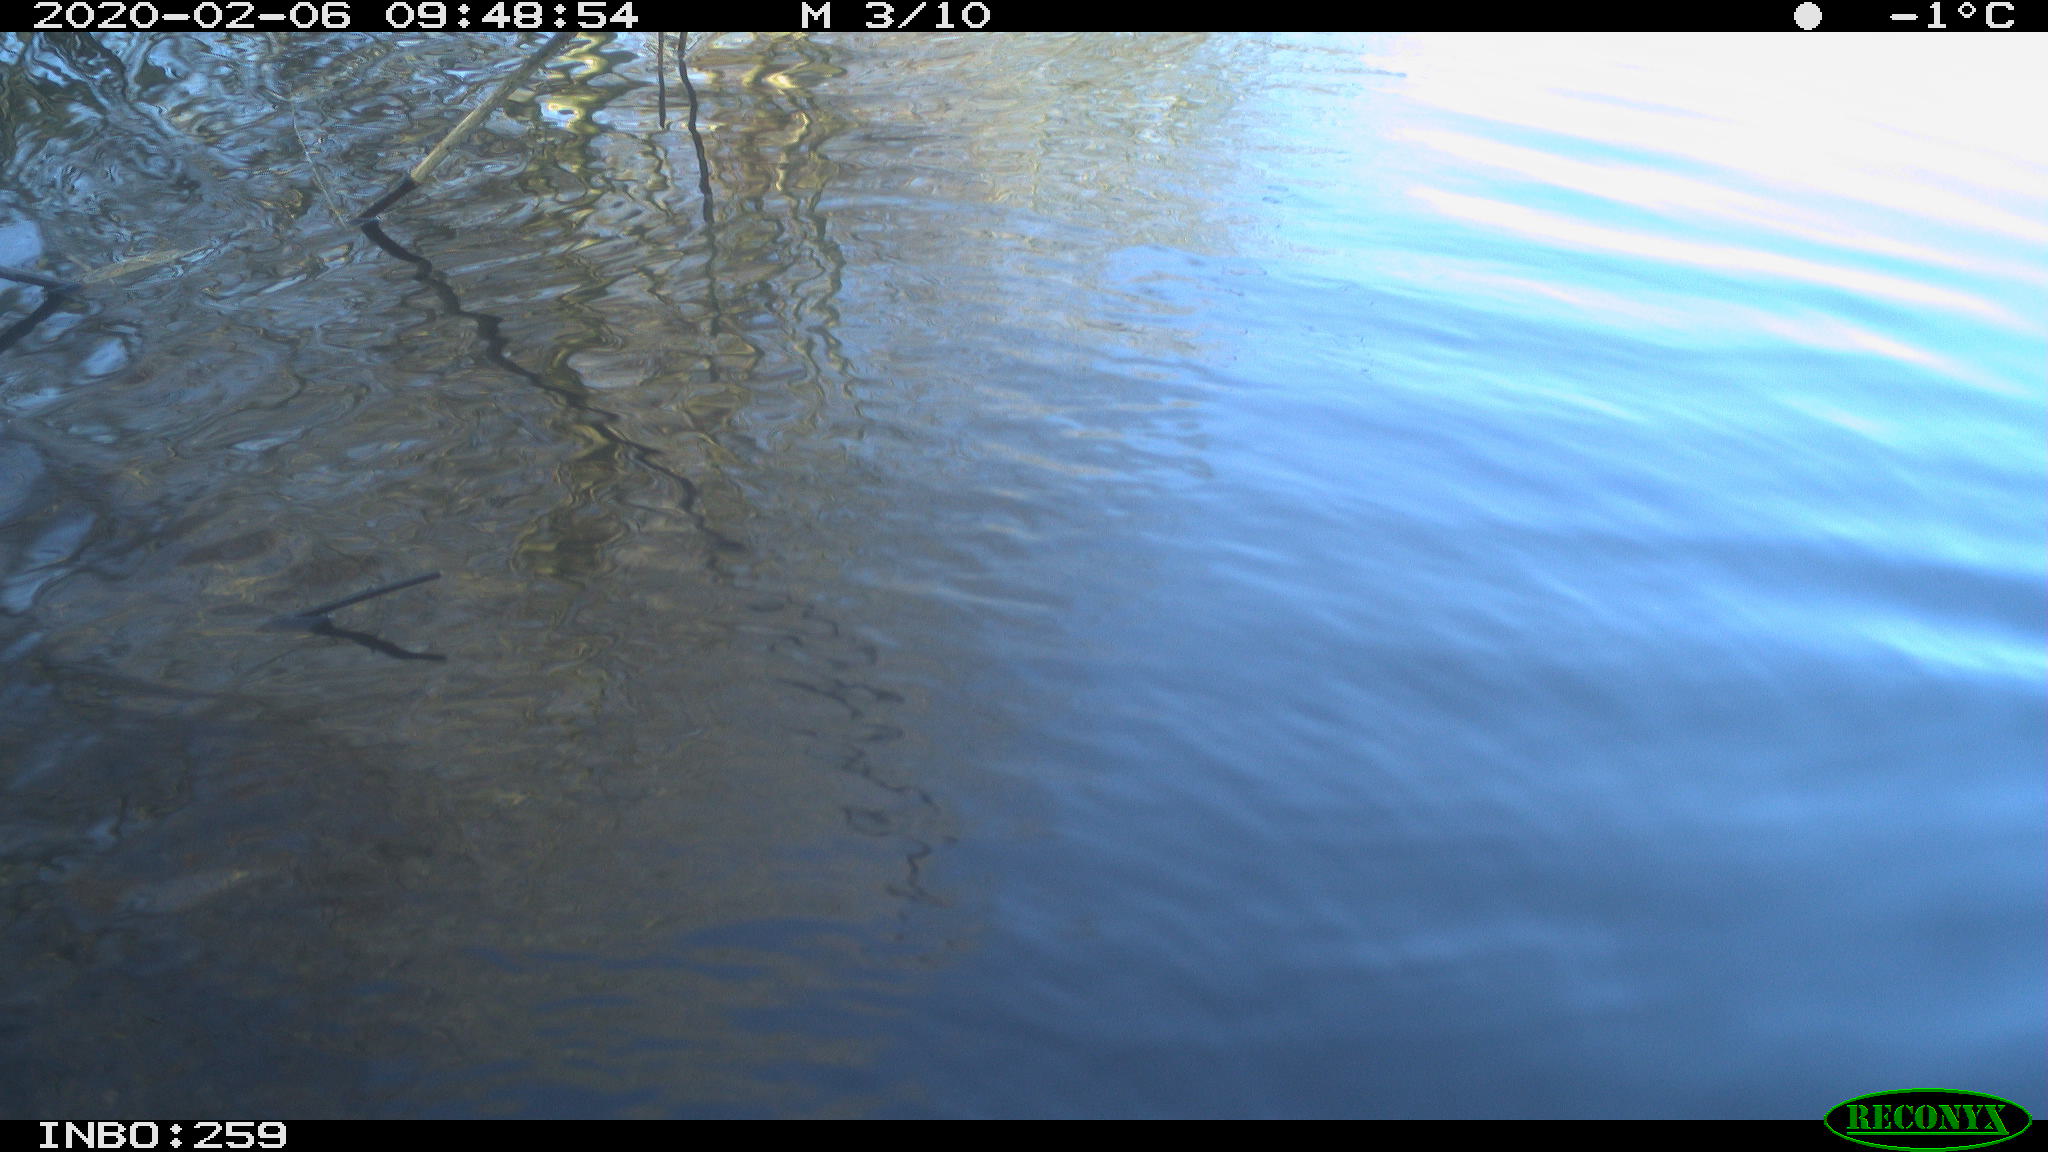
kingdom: Animalia
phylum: Chordata
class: Aves
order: Gruiformes
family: Rallidae
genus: Gallinula
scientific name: Gallinula chloropus
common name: Common moorhen
